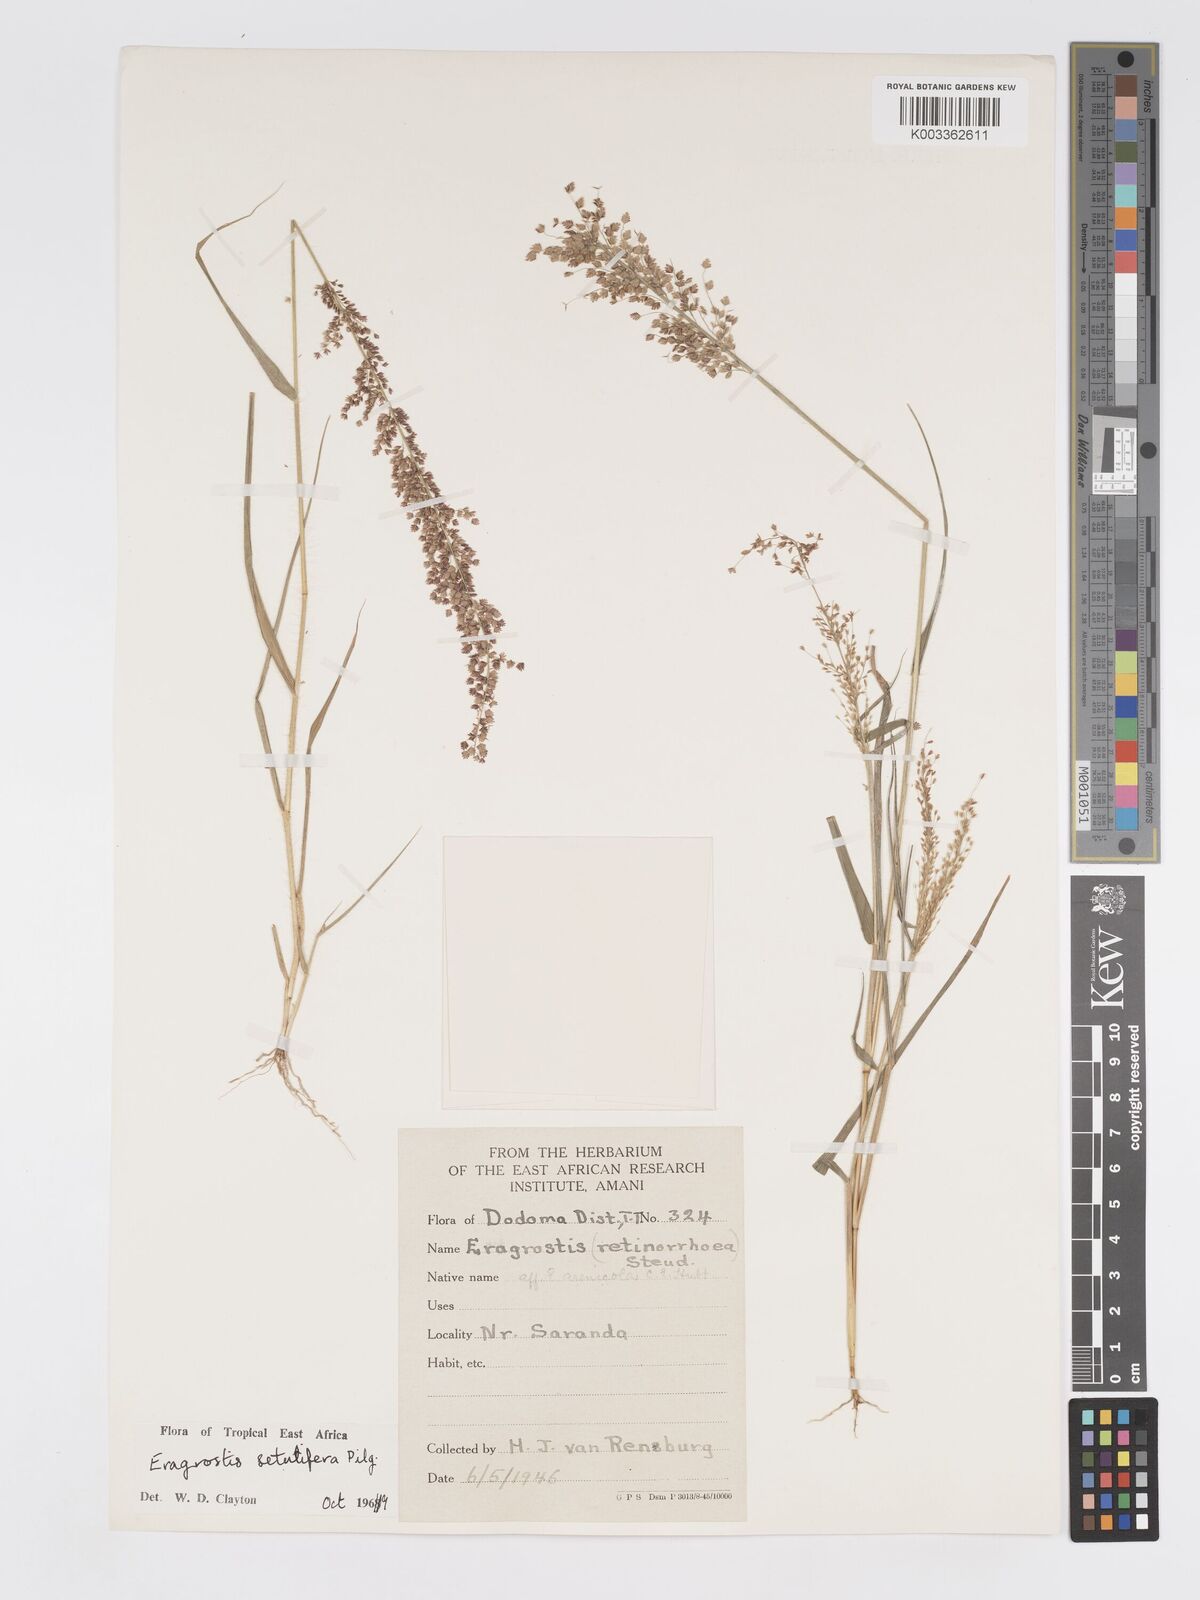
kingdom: Plantae
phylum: Tracheophyta
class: Liliopsida
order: Poales
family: Poaceae
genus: Eragrostis
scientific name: Eragrostis setulifera
